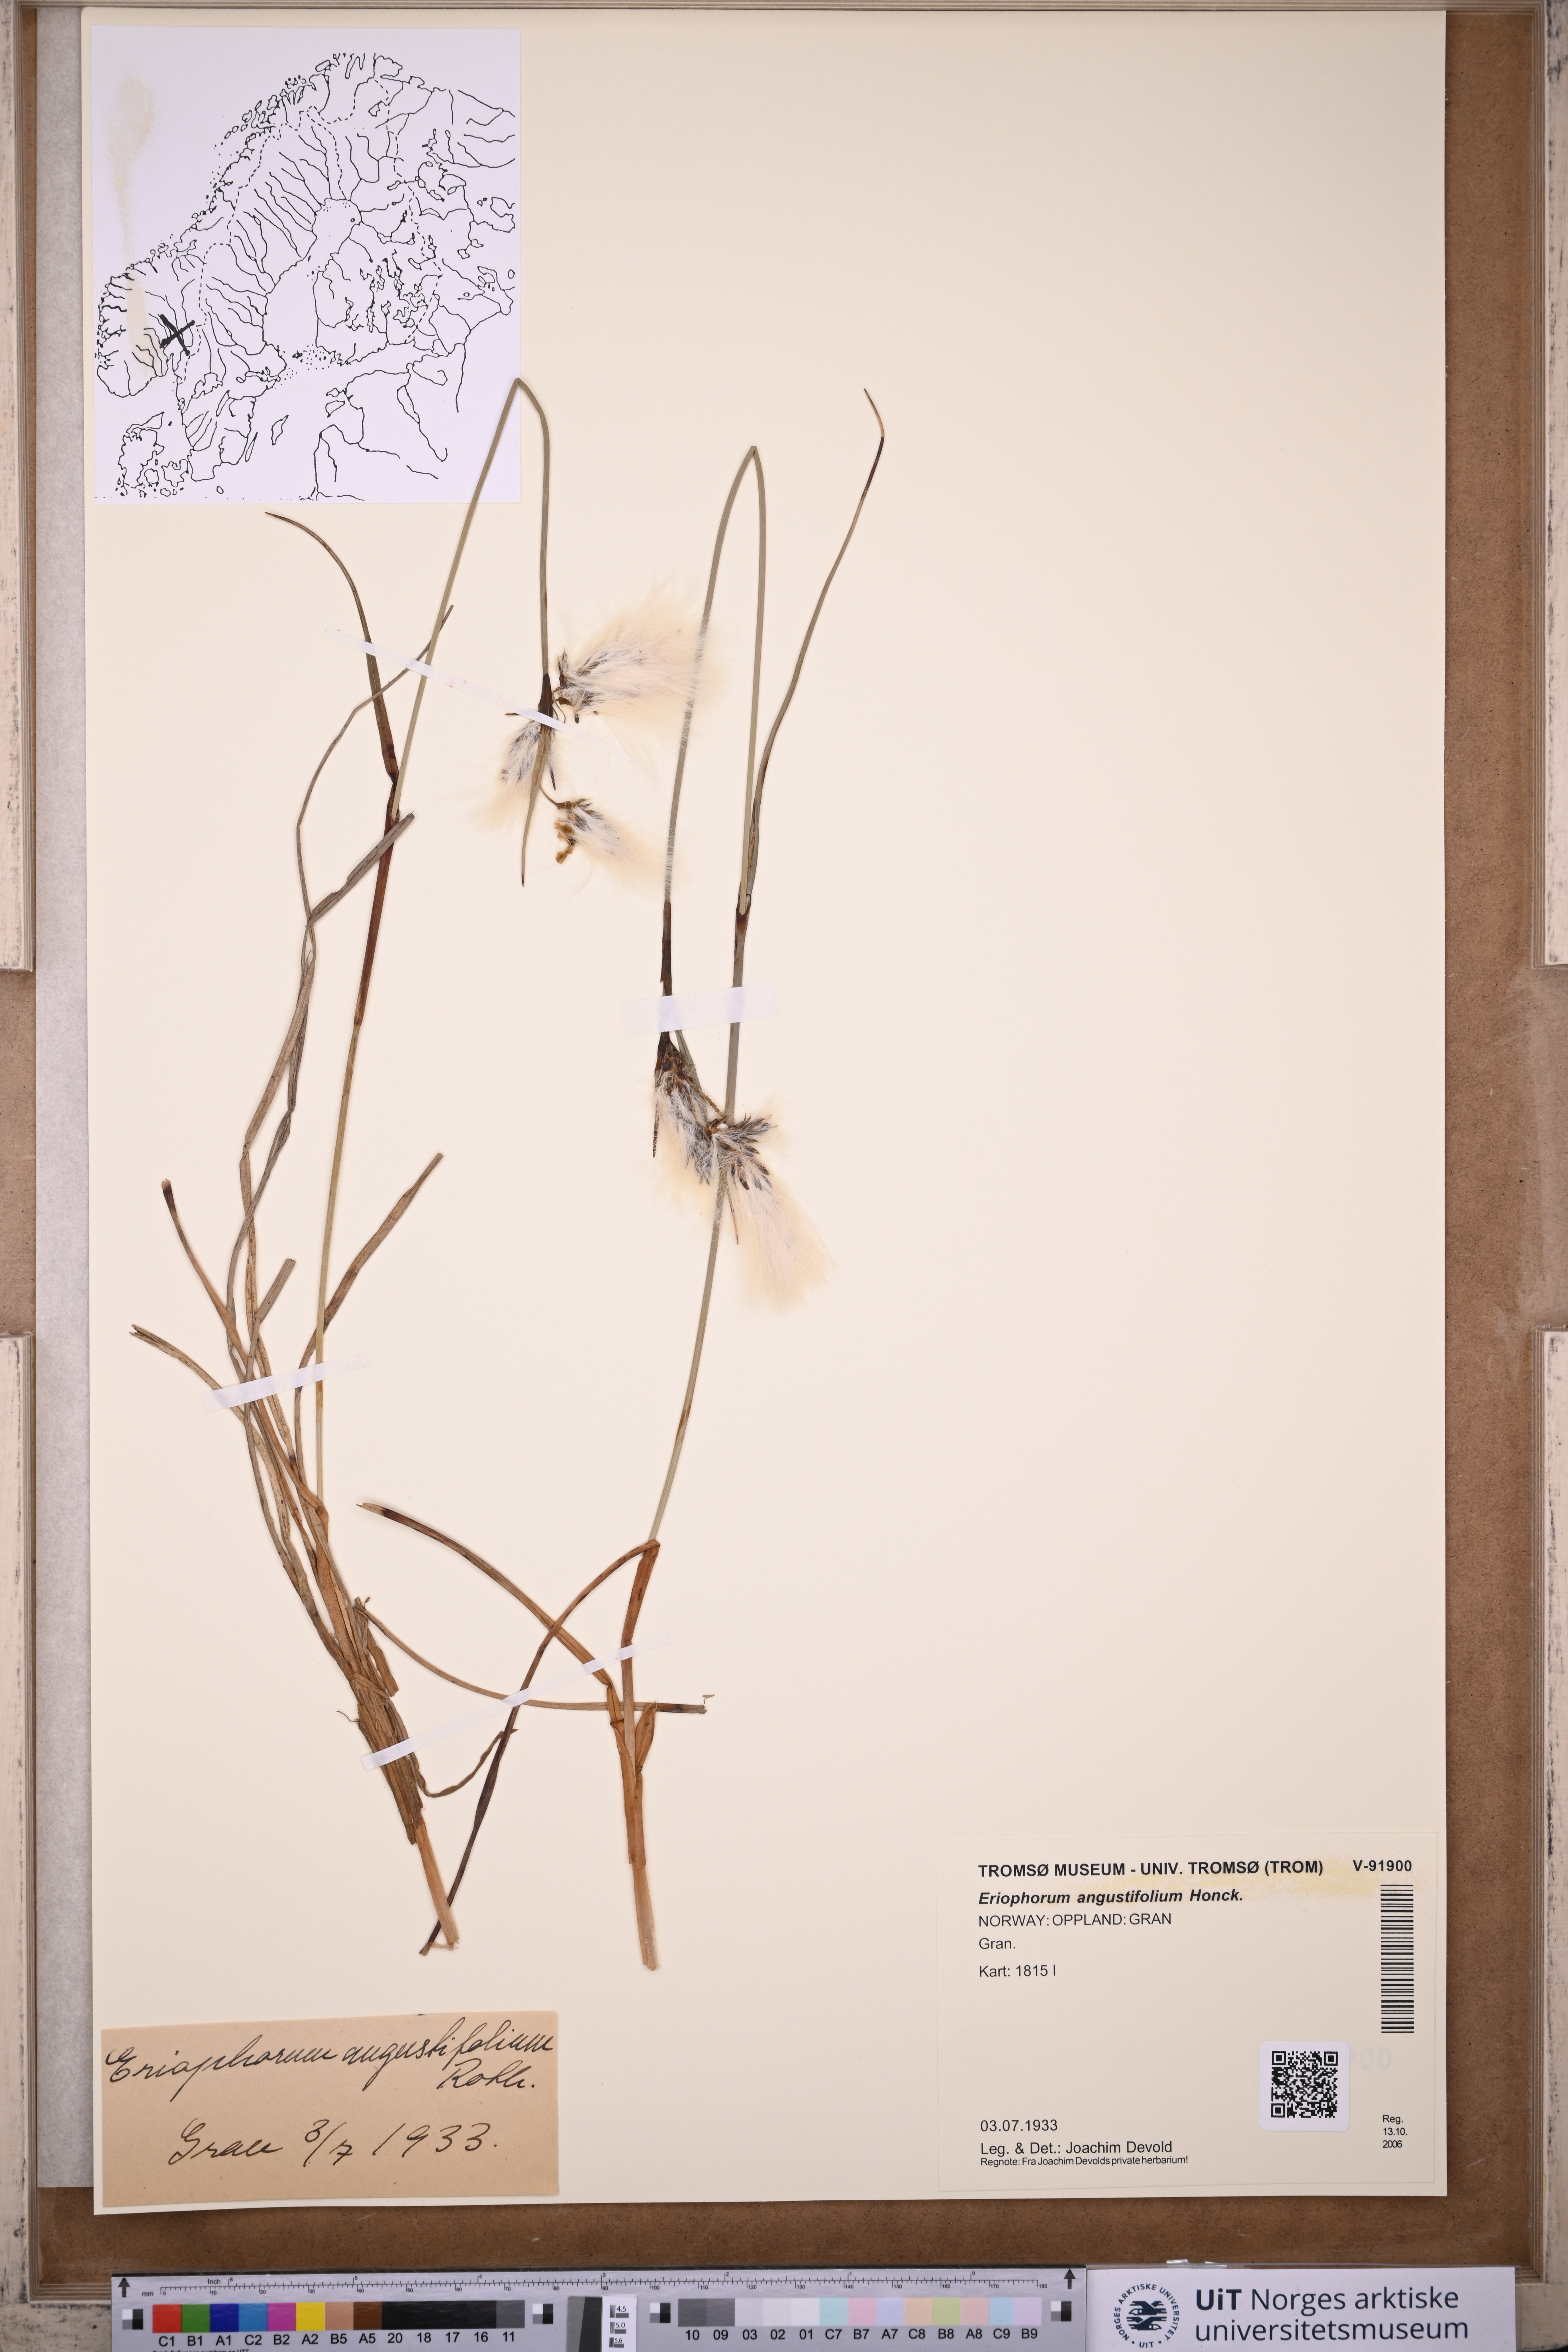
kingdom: Plantae
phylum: Tracheophyta
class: Liliopsida
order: Poales
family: Cyperaceae
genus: Eriophorum
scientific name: Eriophorum angustifolium
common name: Common cottongrass
